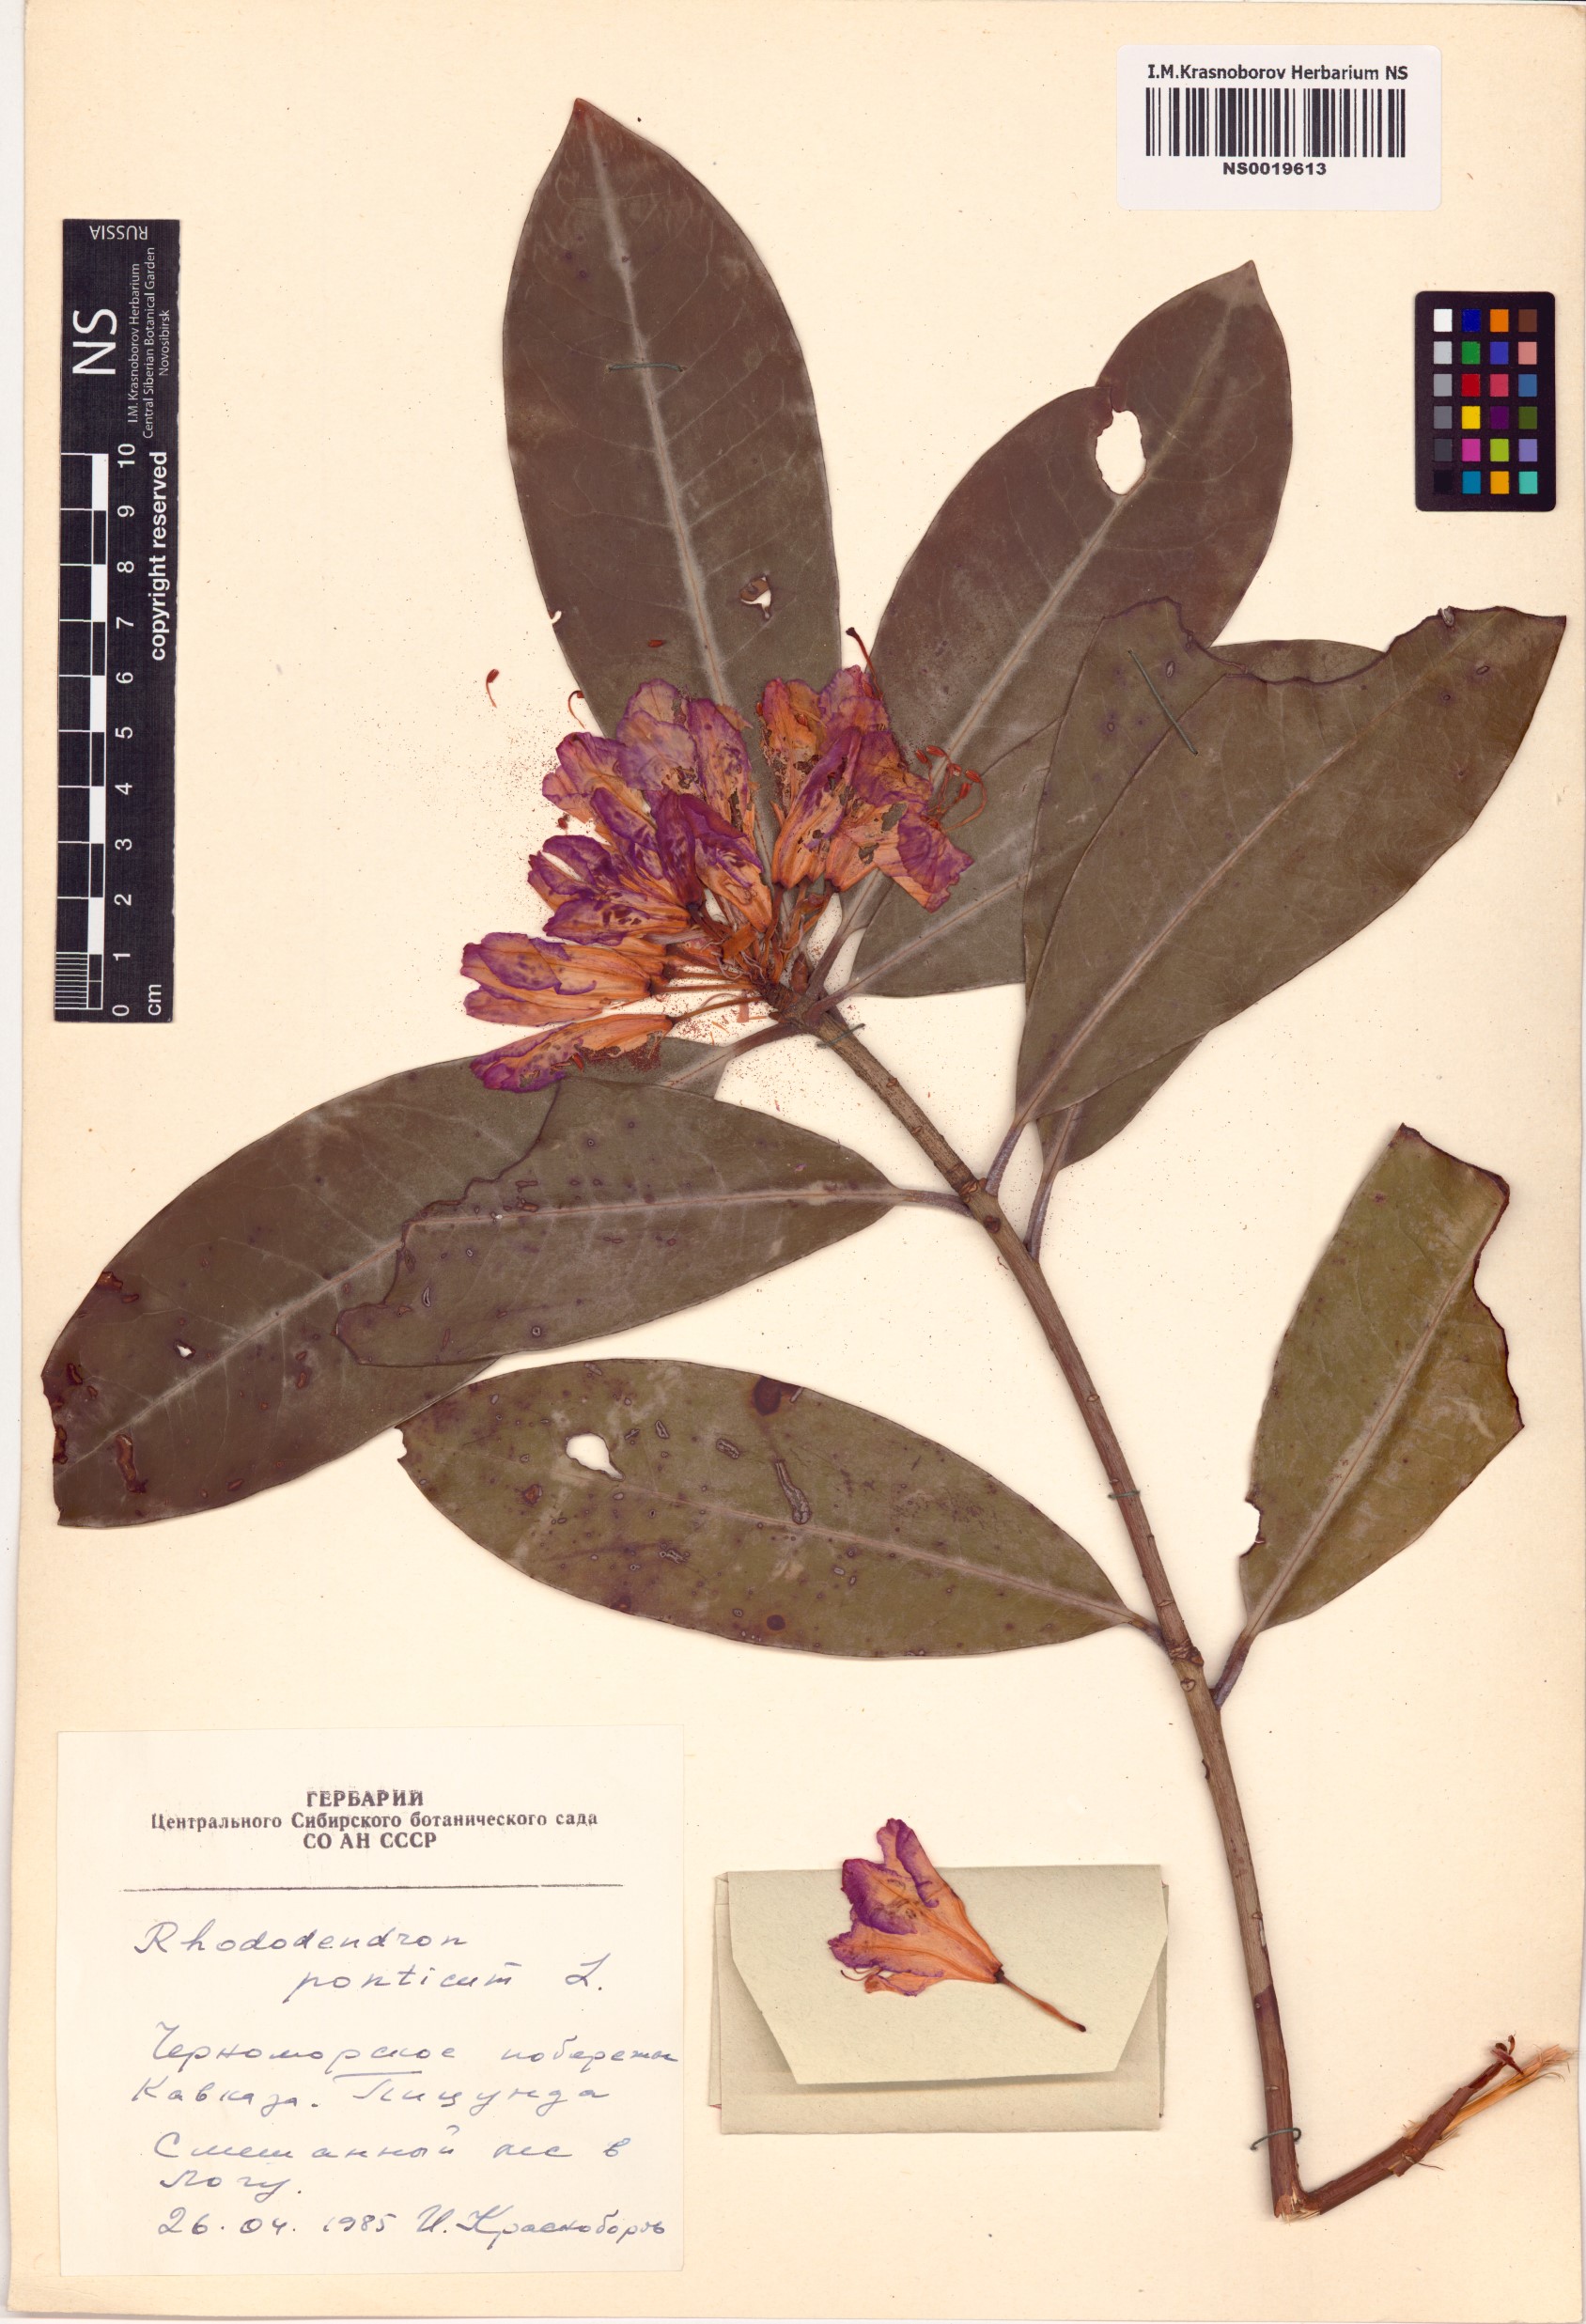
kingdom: Plantae
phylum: Tracheophyta
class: Magnoliopsida
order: Ericales
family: Ericaceae
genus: Rhododendron
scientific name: Rhododendron ponticum
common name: Rhododendron
